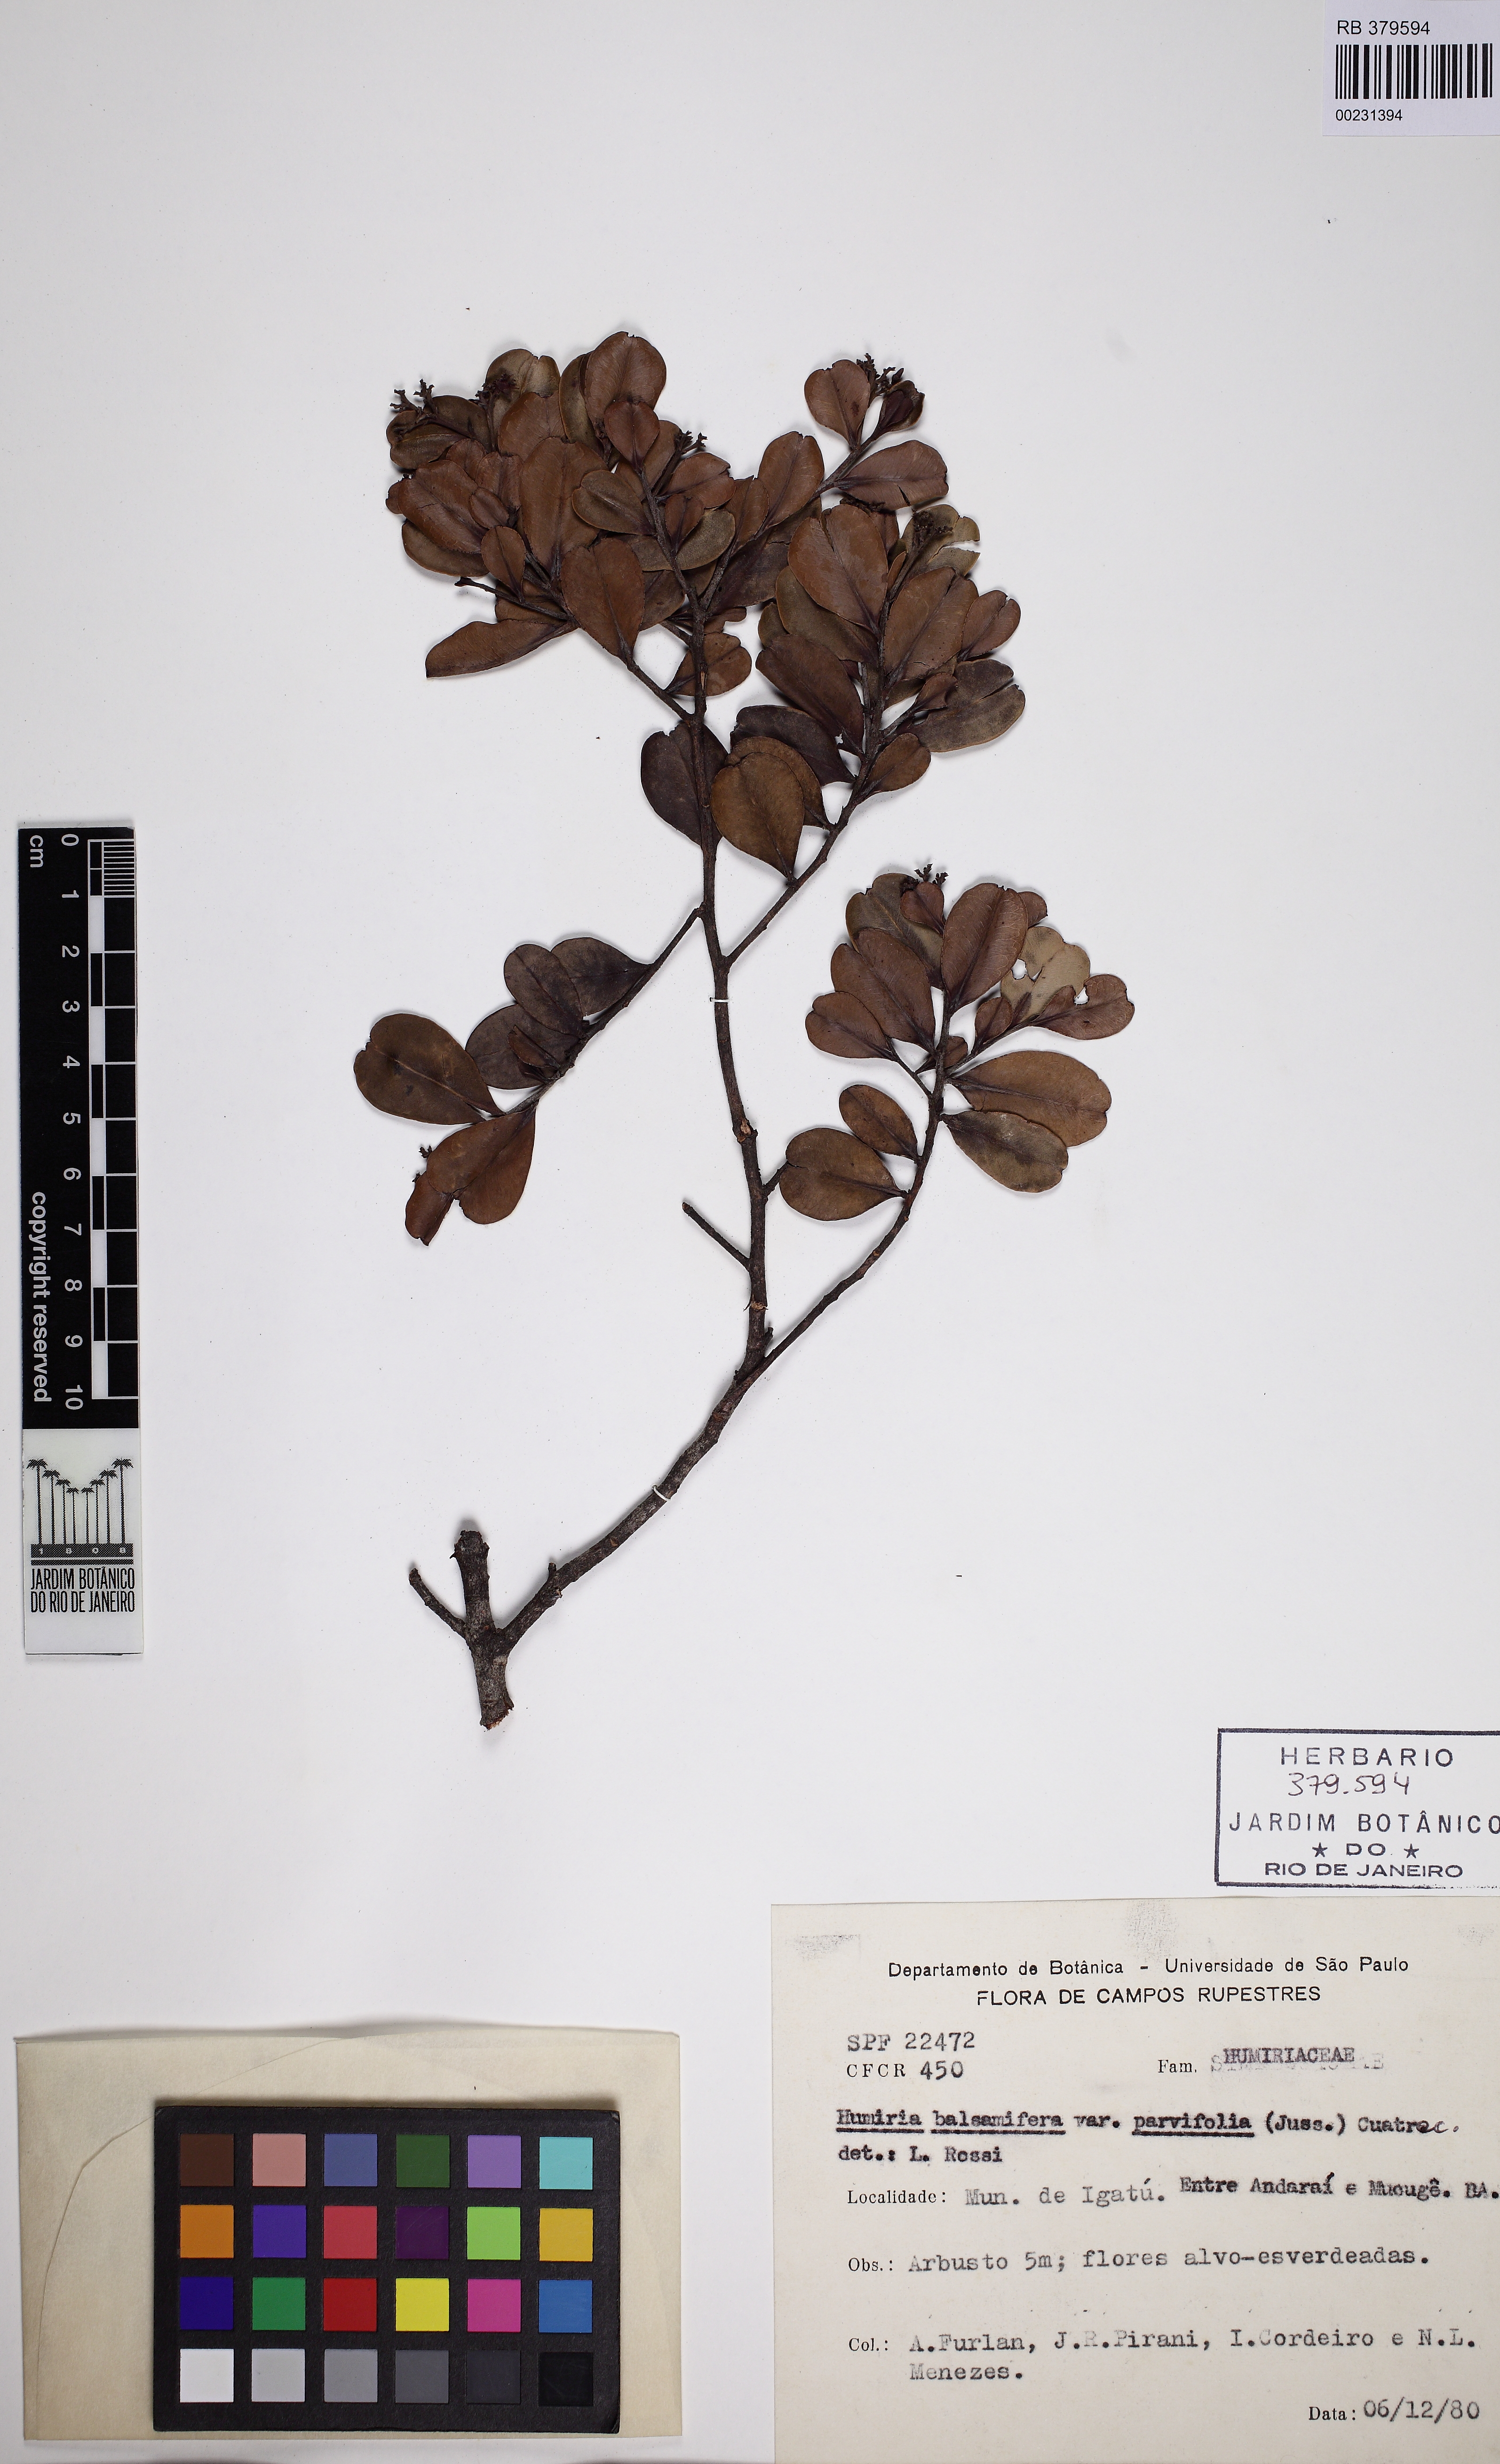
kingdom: Plantae
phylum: Tracheophyta
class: Magnoliopsida
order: Malpighiales
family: Humiriaceae
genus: Humiria
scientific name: Humiria parvifolia
